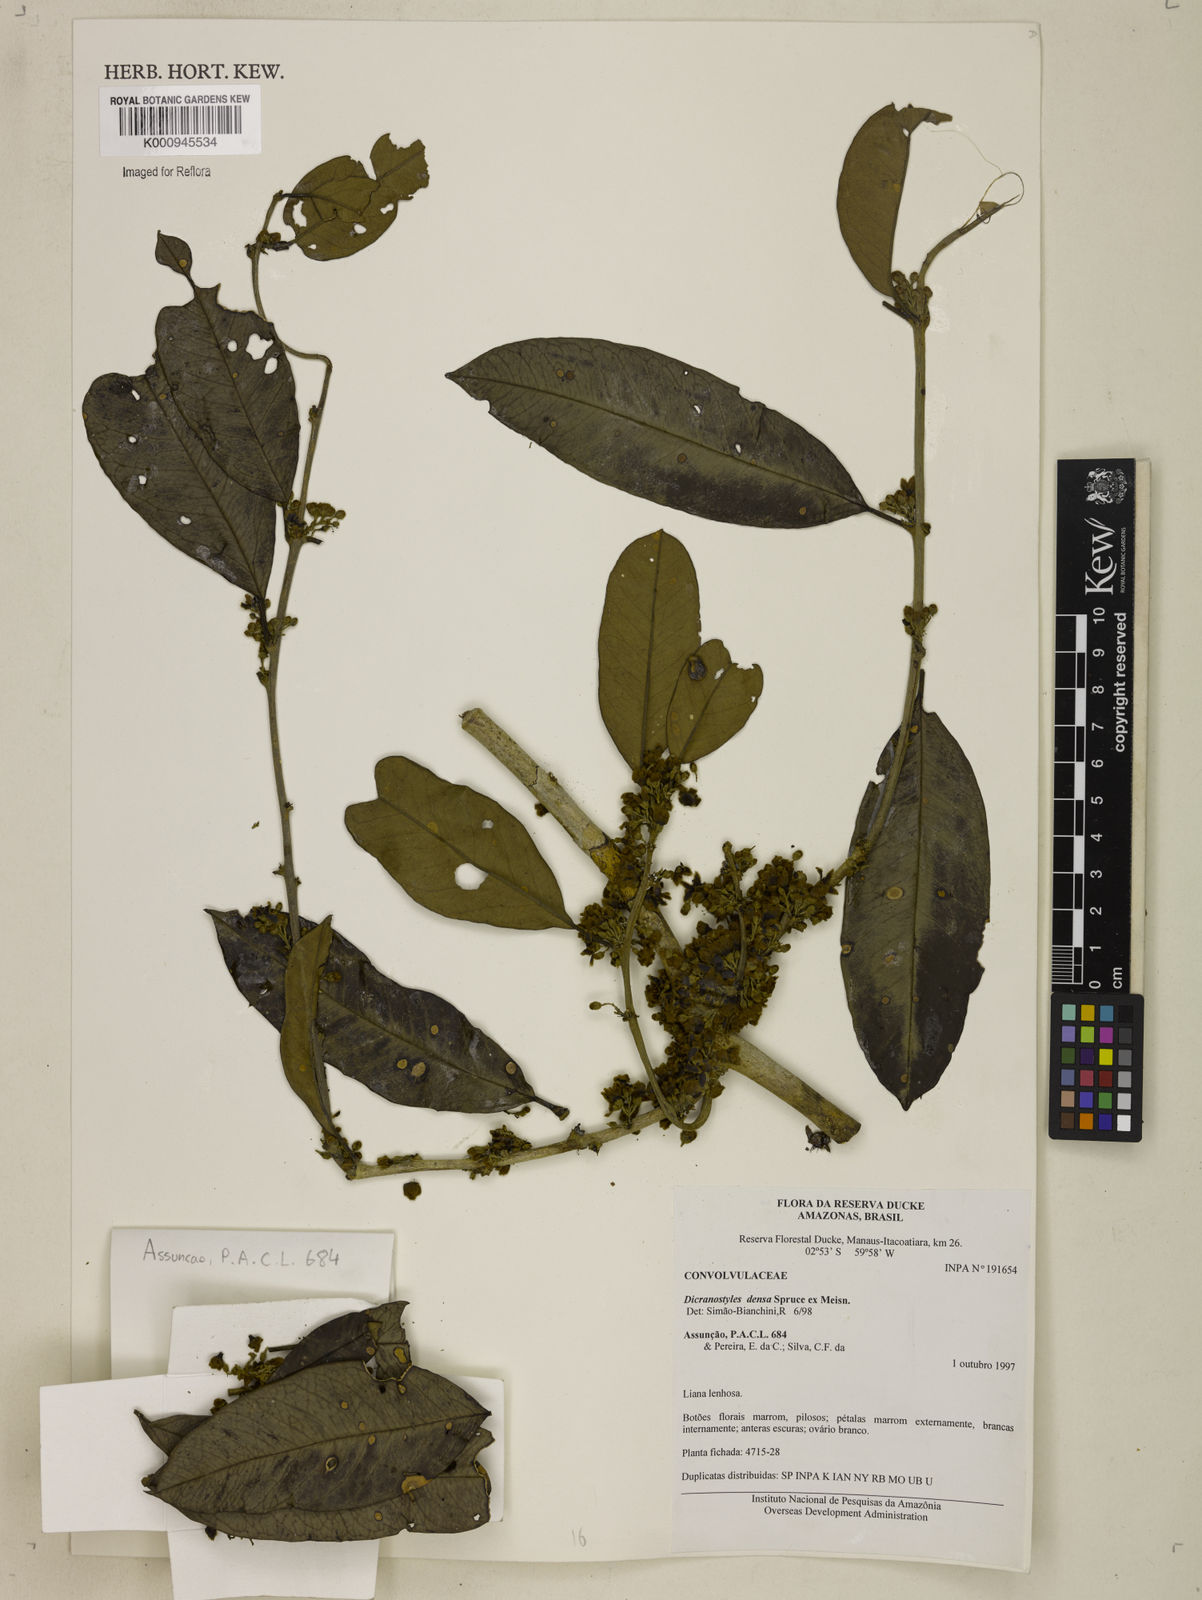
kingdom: Plantae
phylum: Tracheophyta
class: Magnoliopsida
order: Solanales
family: Convolvulaceae
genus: Dicranostyles
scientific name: Dicranostyles densa
